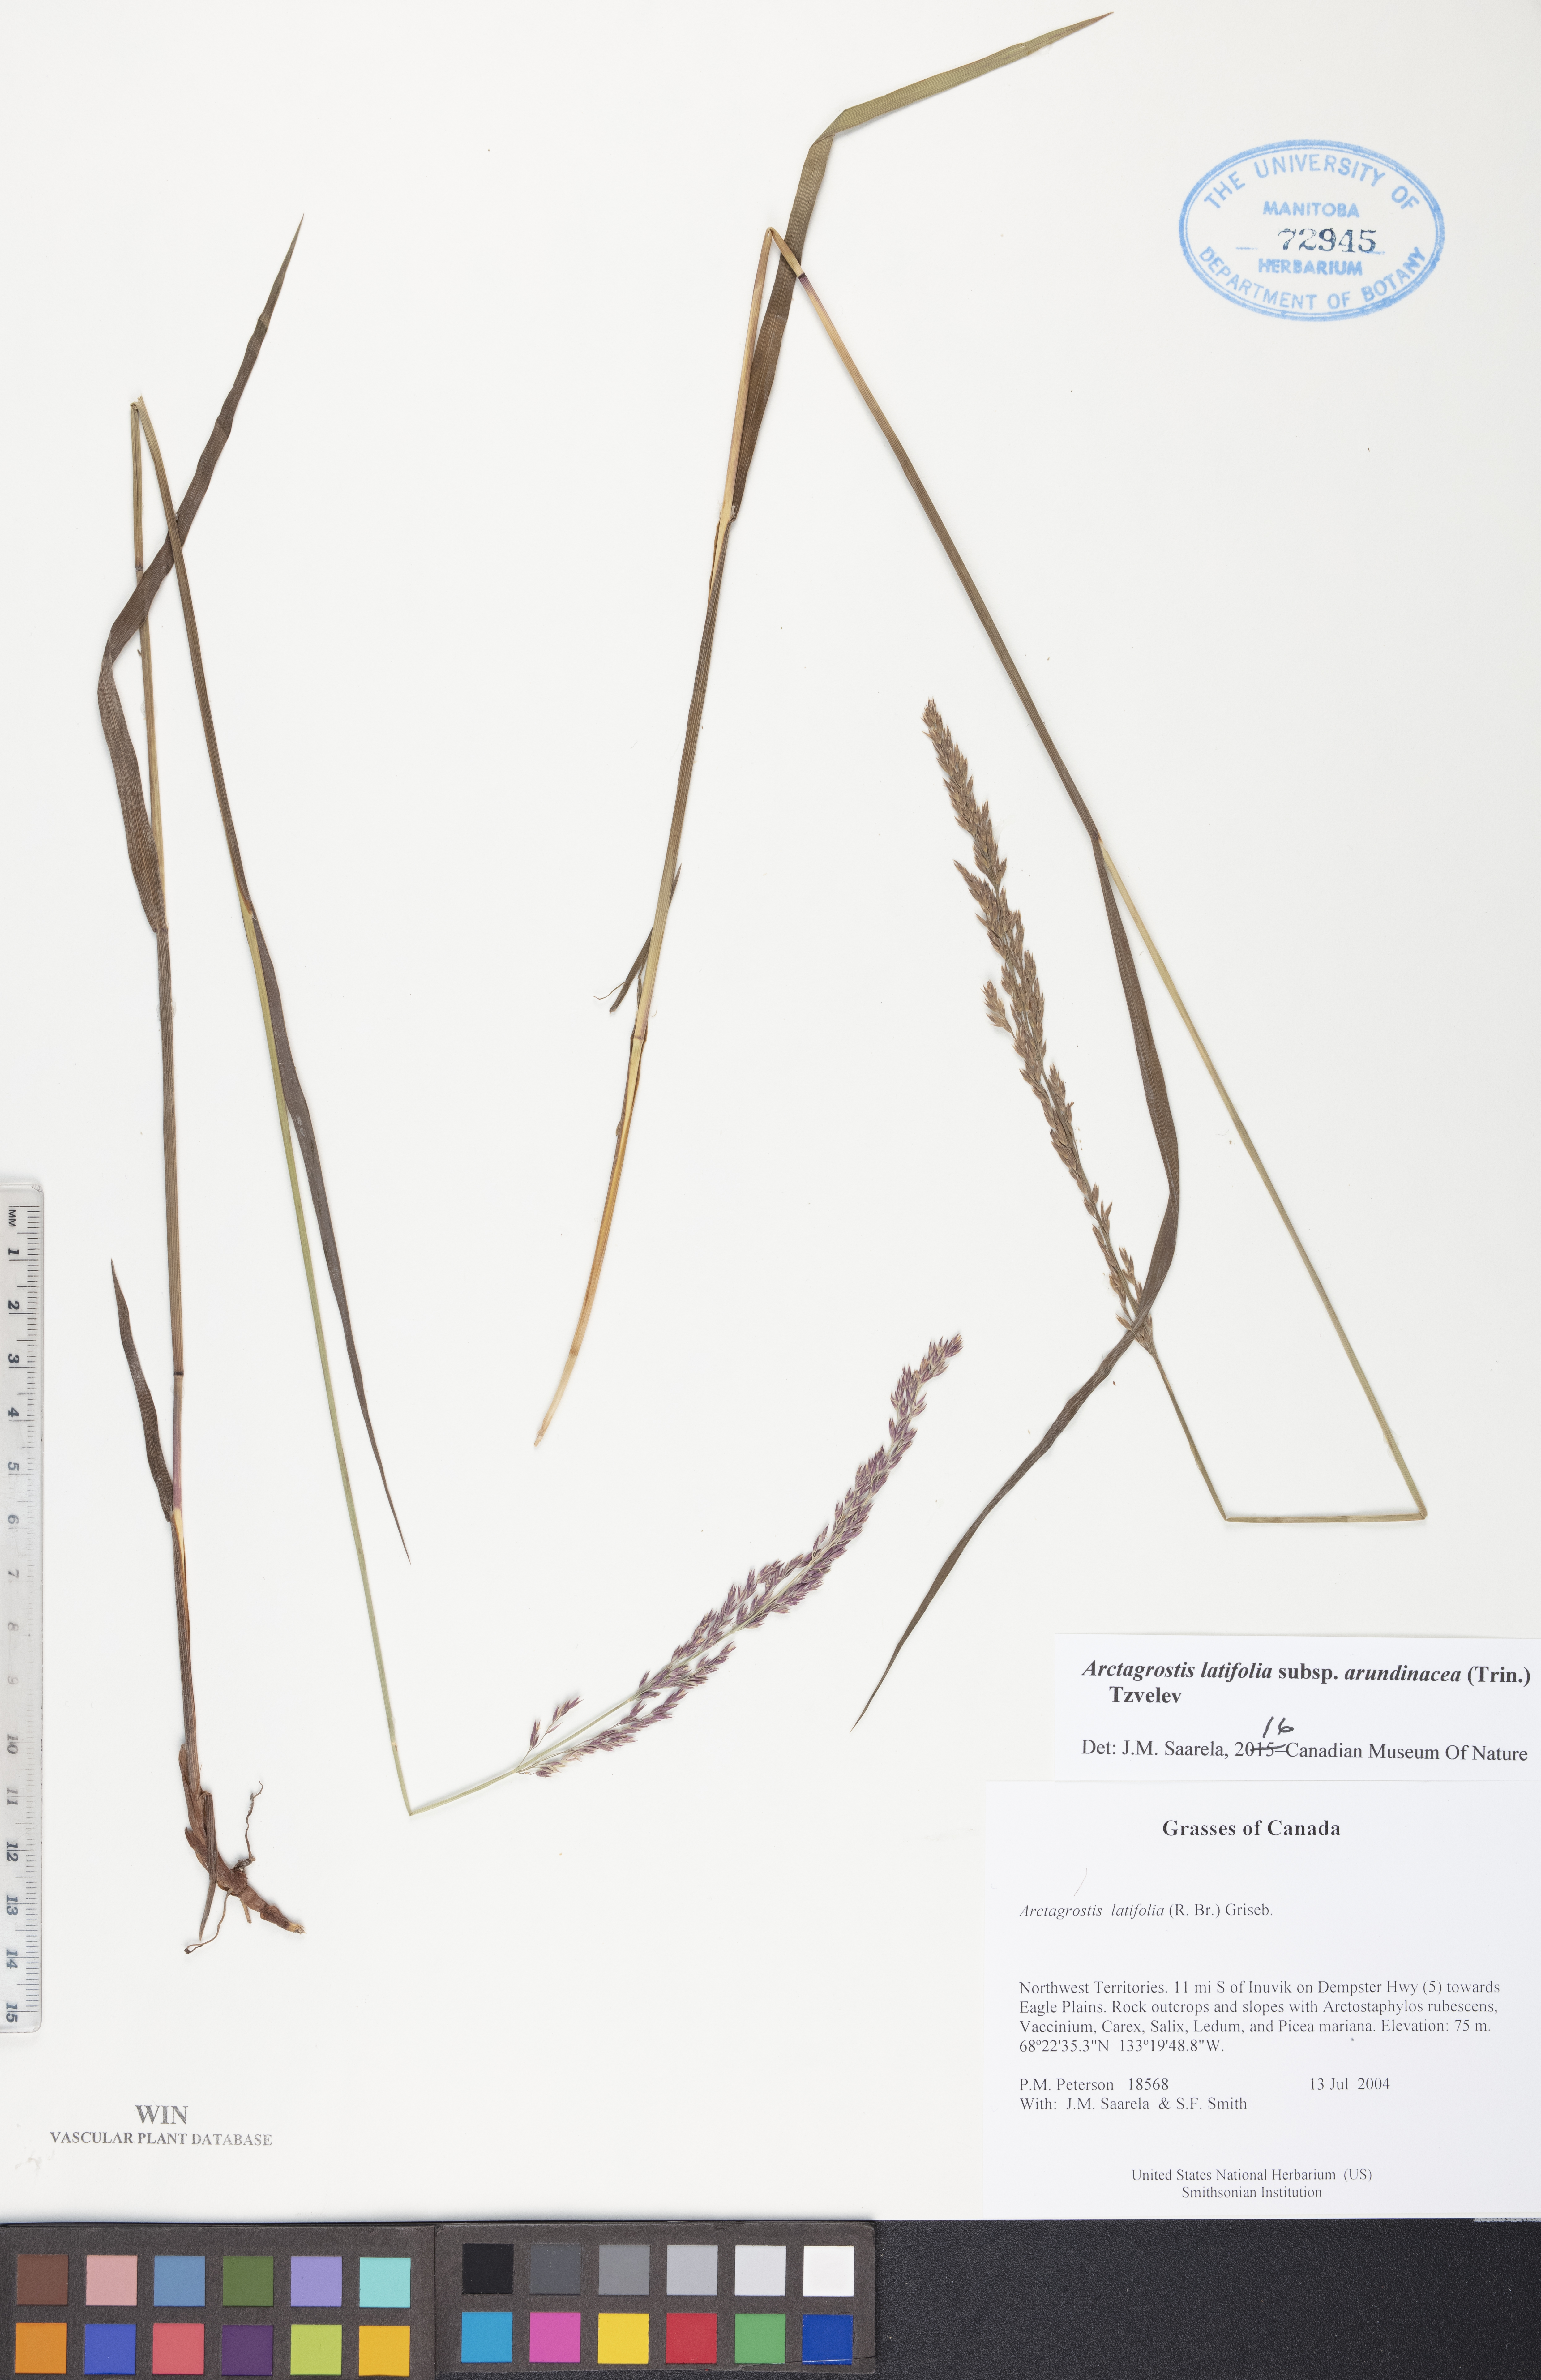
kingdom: Plantae
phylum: Tracheophyta
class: Liliopsida
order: Poales
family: Poaceae
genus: Arctagrostis
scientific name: Arctagrostis arundinacea
